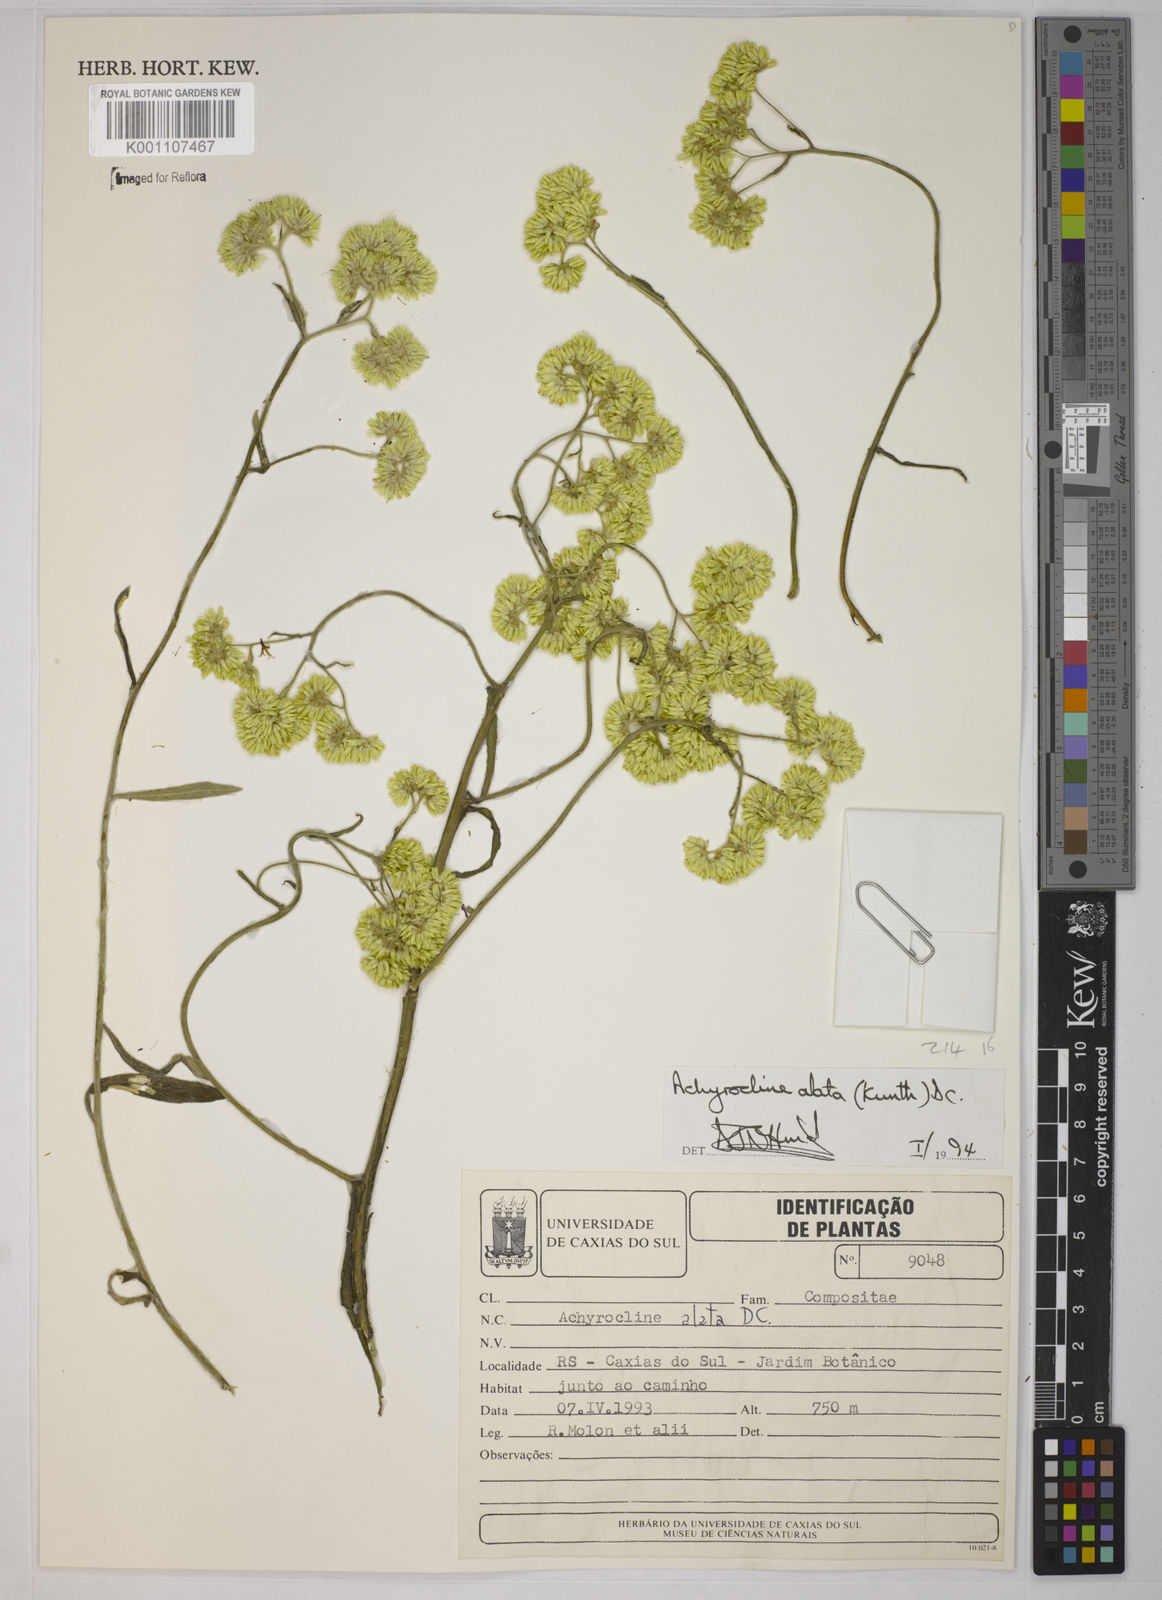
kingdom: Plantae
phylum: Tracheophyta
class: Magnoliopsida
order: Asterales
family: Asteraceae
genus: Achyrocline
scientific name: Achyrocline alata
